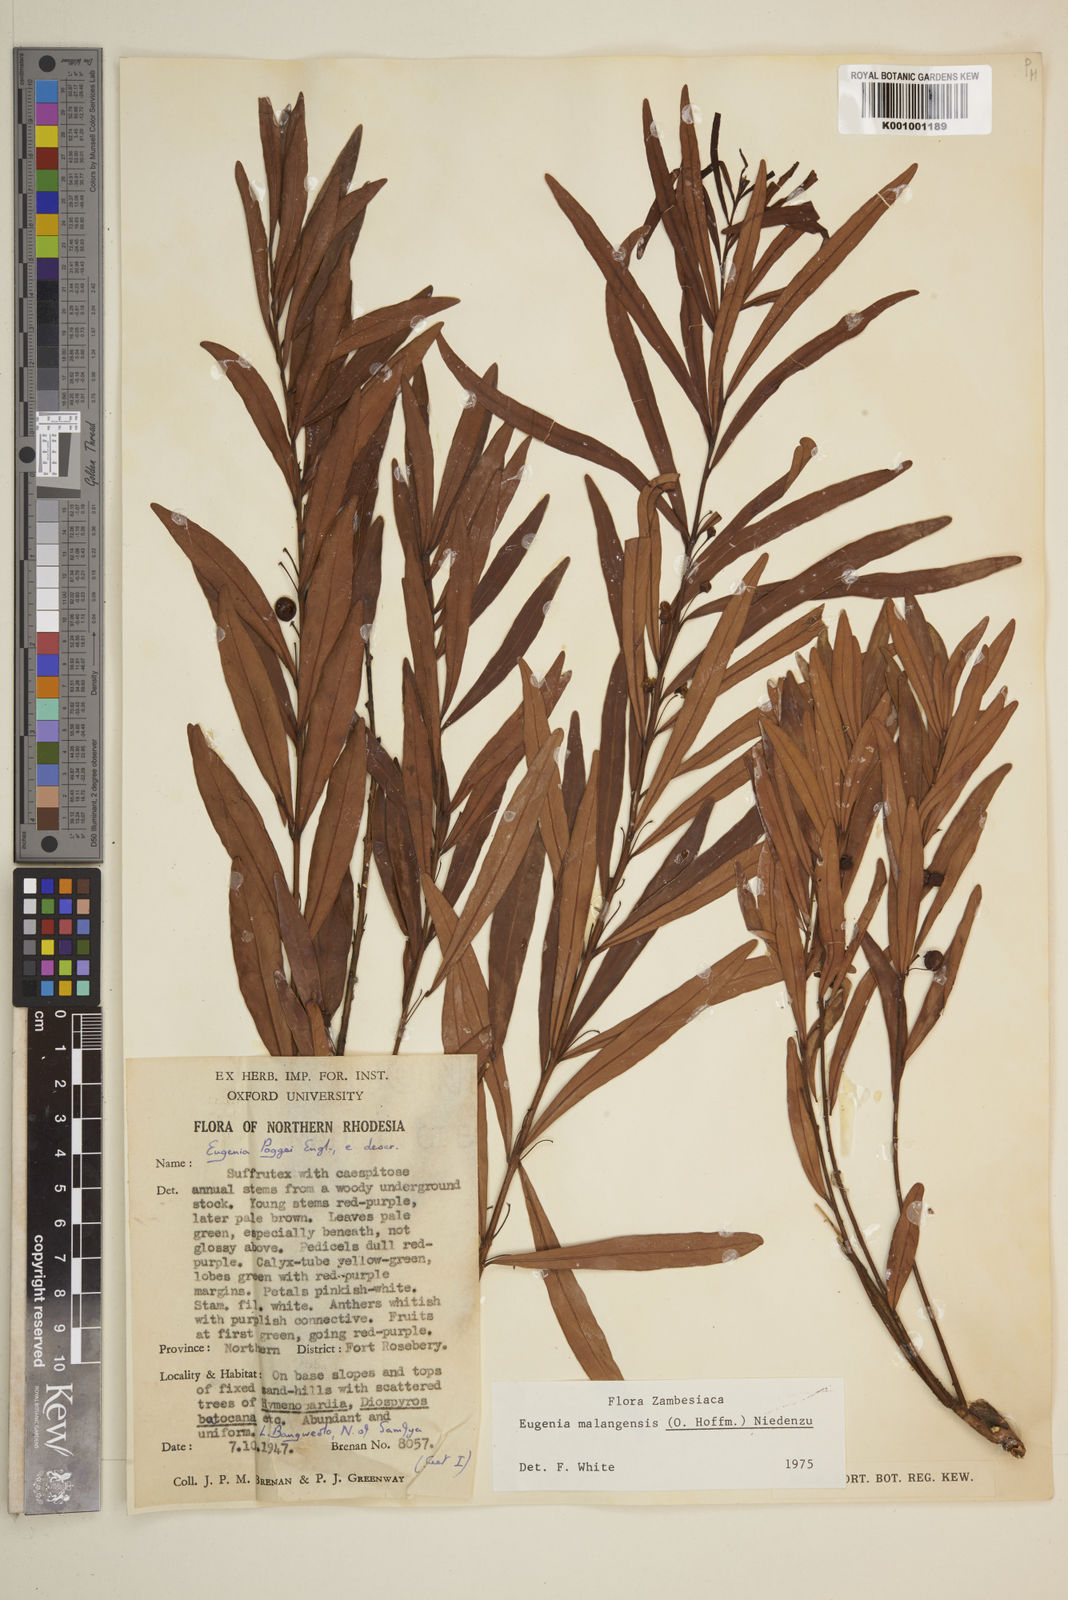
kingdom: Plantae
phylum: Tracheophyta
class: Magnoliopsida
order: Myrtales
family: Myrtaceae
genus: Eugenia
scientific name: Eugenia malangensis
